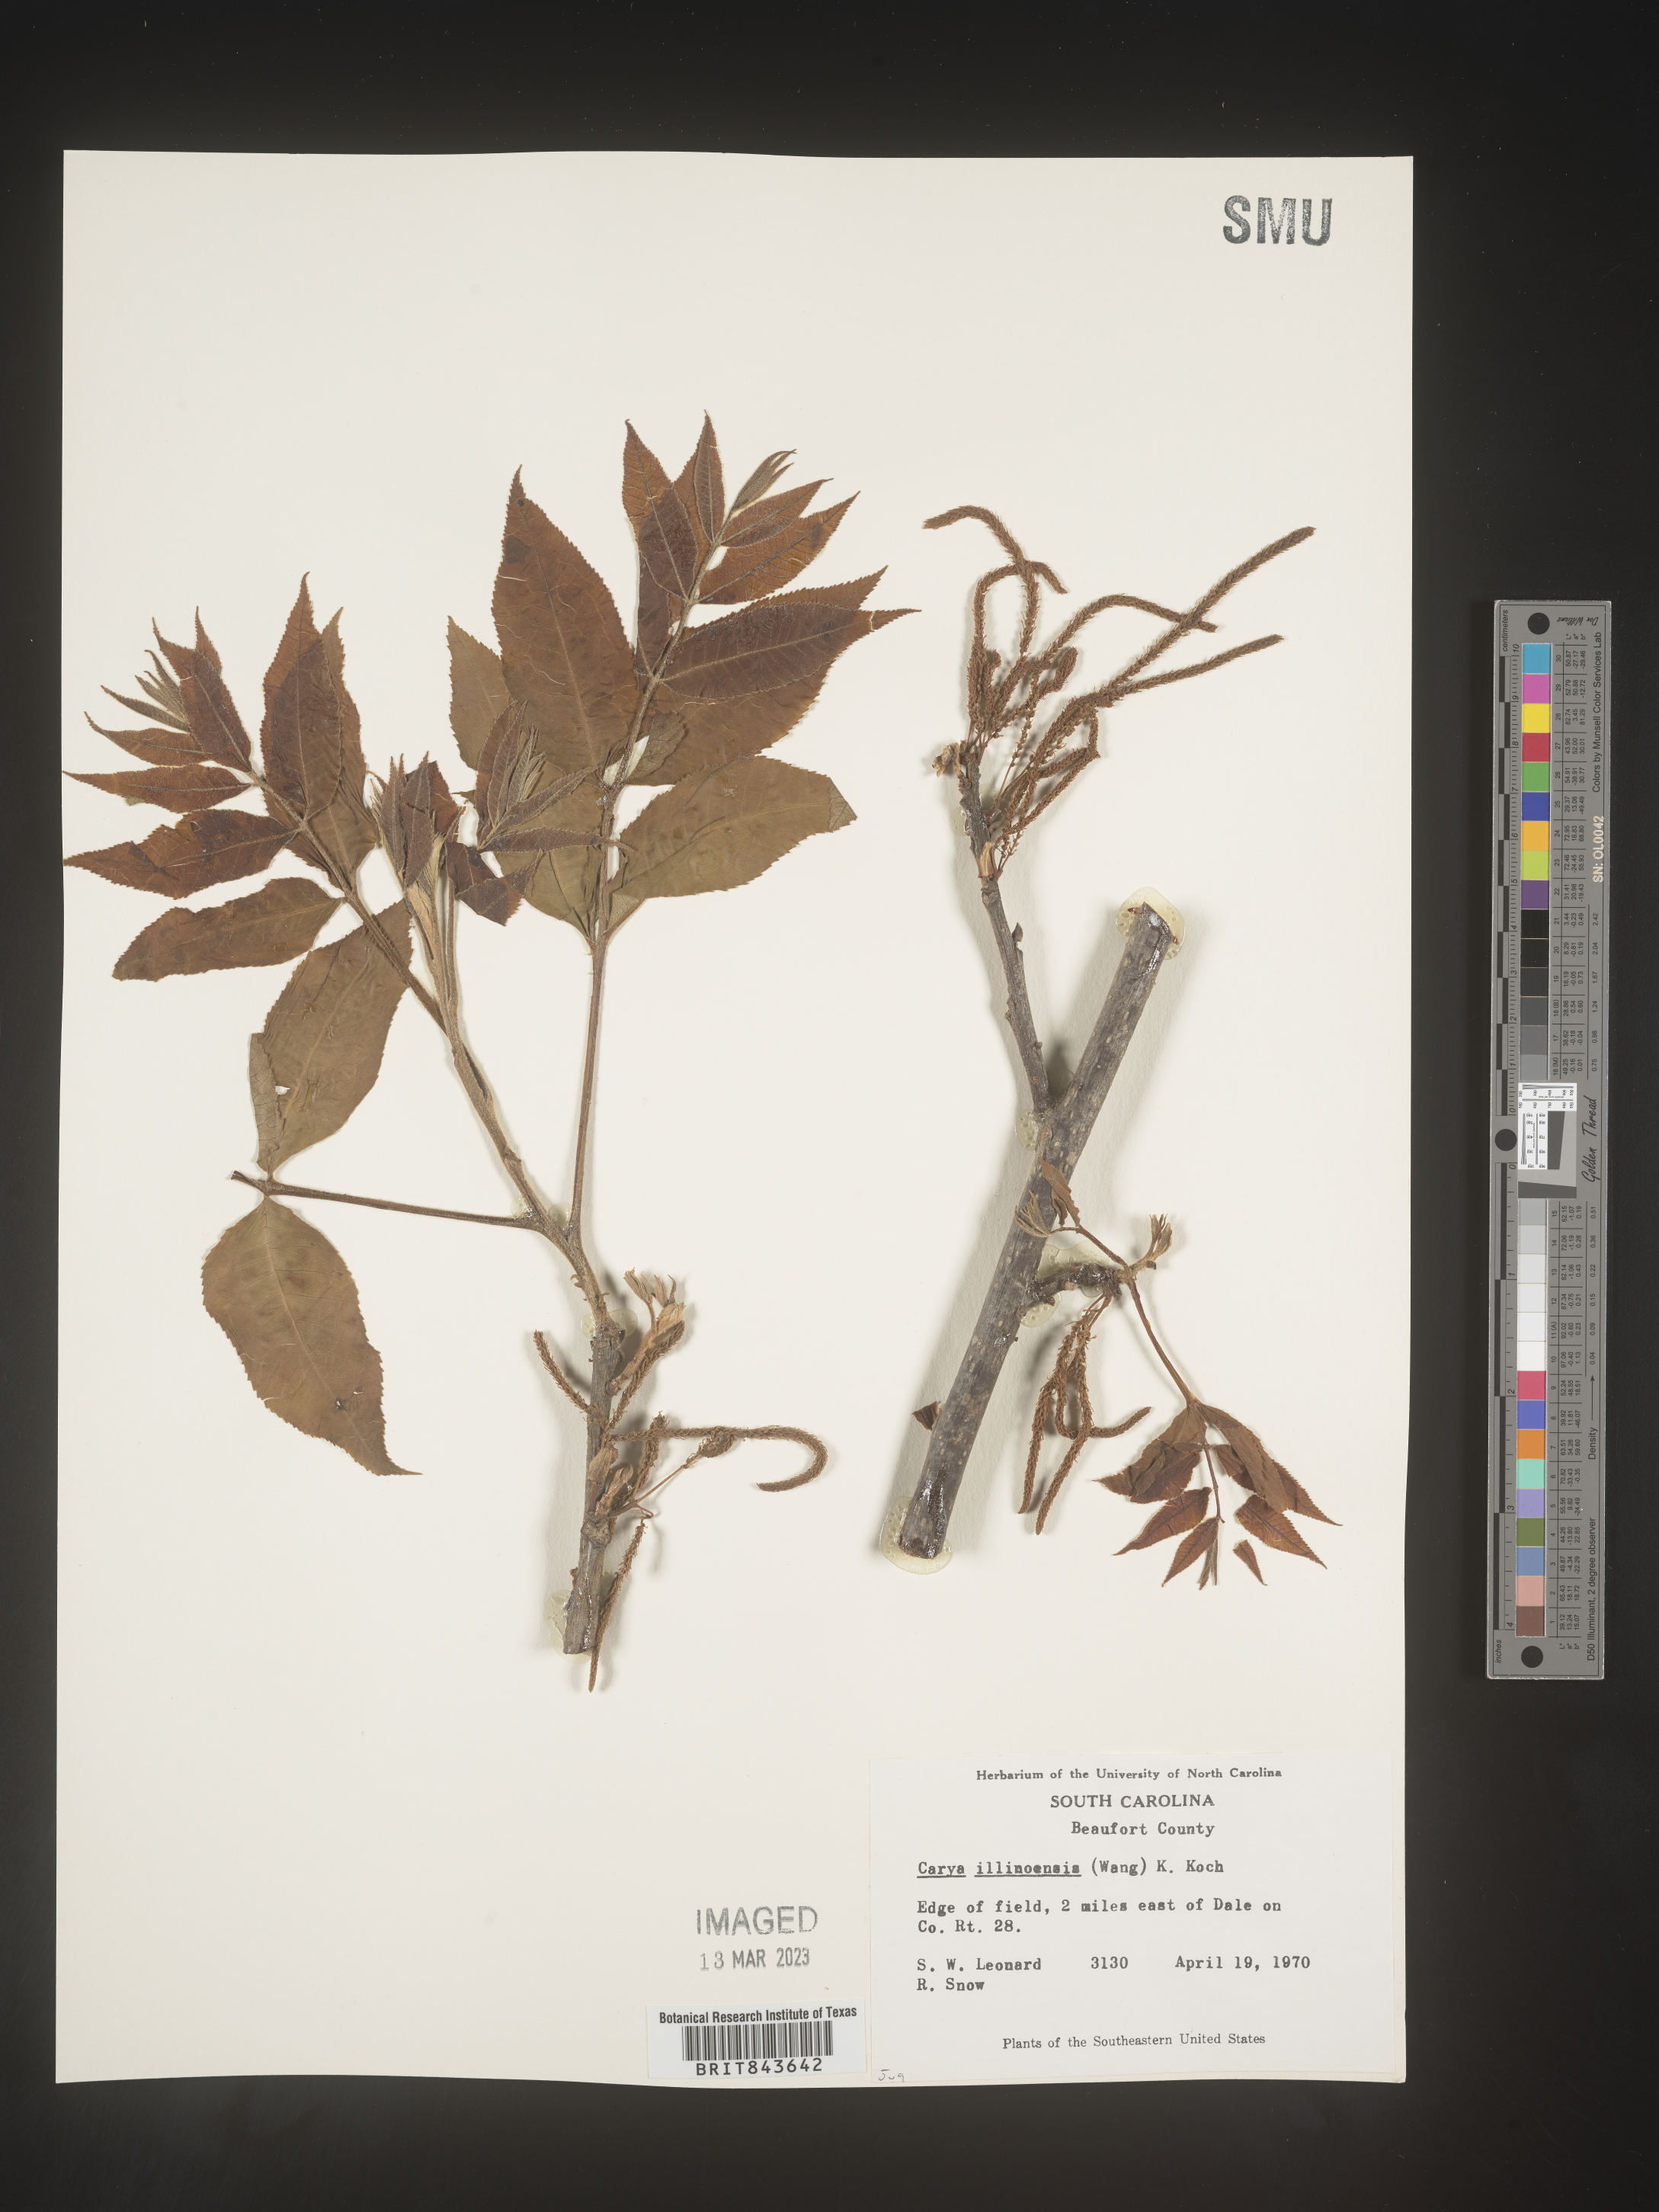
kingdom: Plantae
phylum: Tracheophyta
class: Magnoliopsida
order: Fagales
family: Juglandaceae
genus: Carya
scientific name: Carya illinoinensis
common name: Pecan
